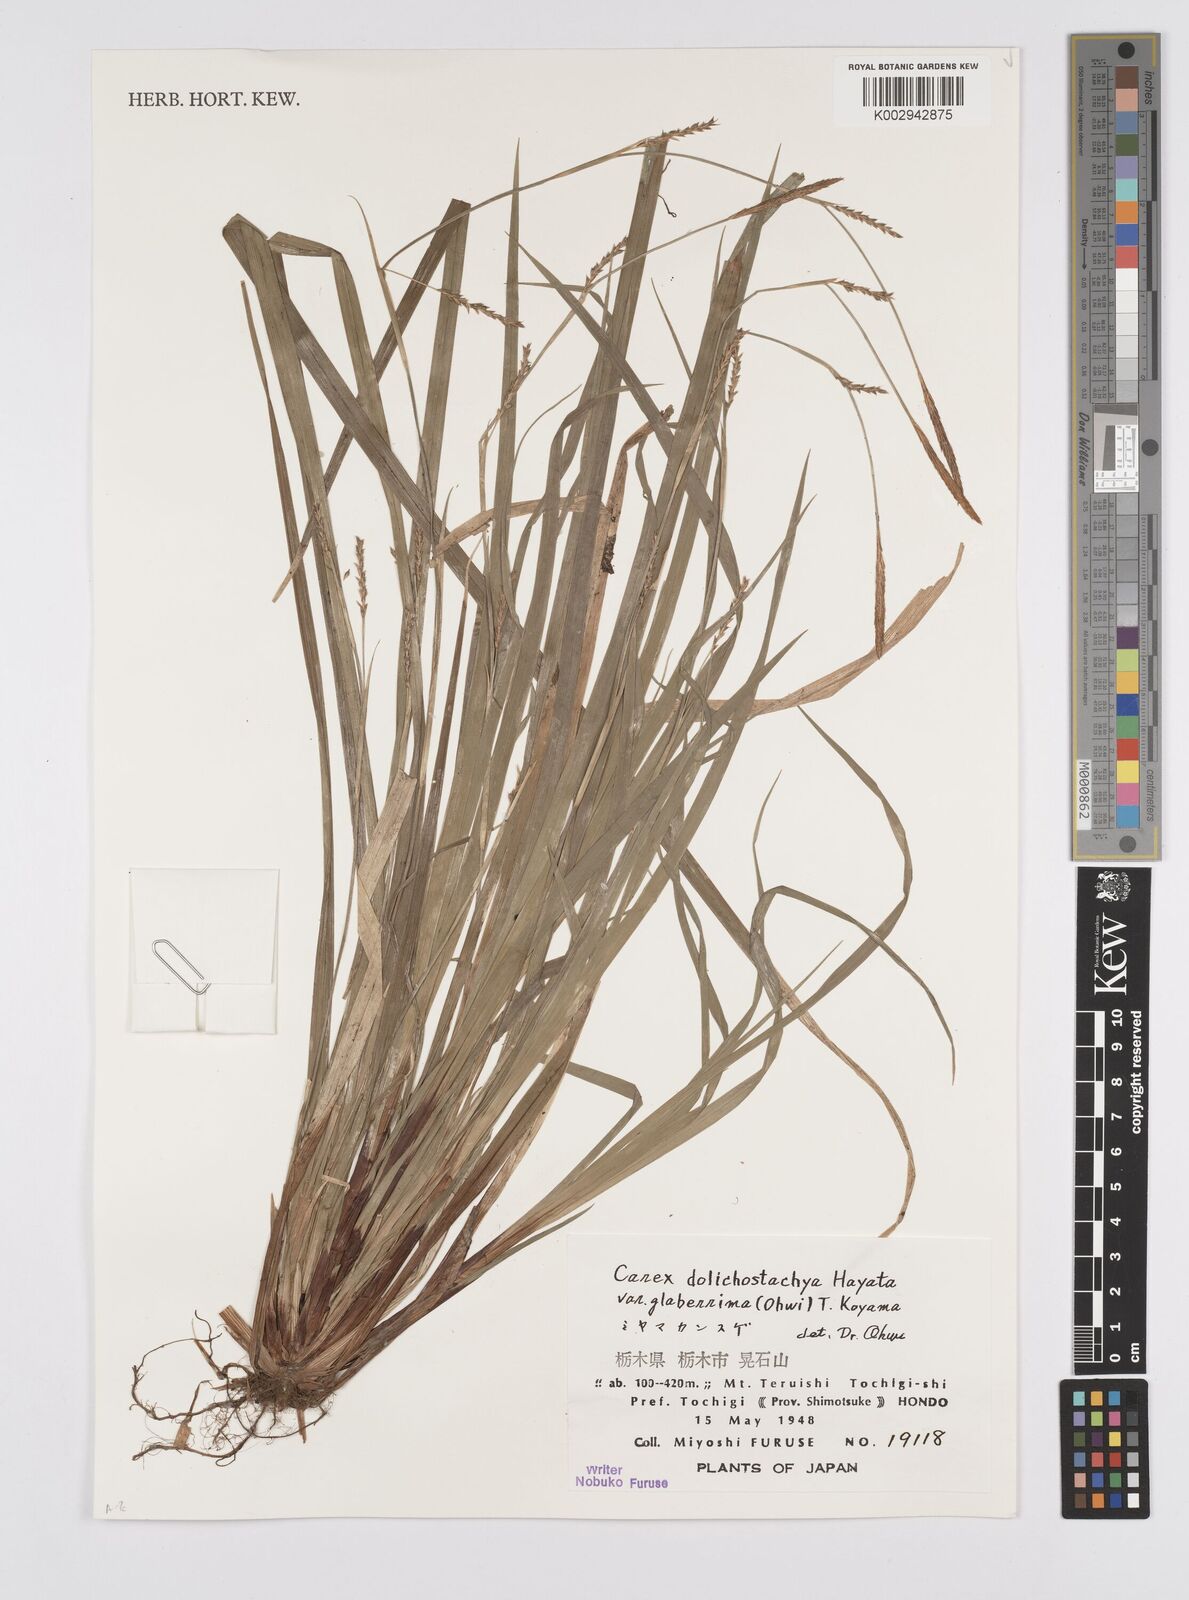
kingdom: Plantae
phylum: Tracheophyta
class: Liliopsida
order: Poales
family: Cyperaceae
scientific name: Cyperaceae
